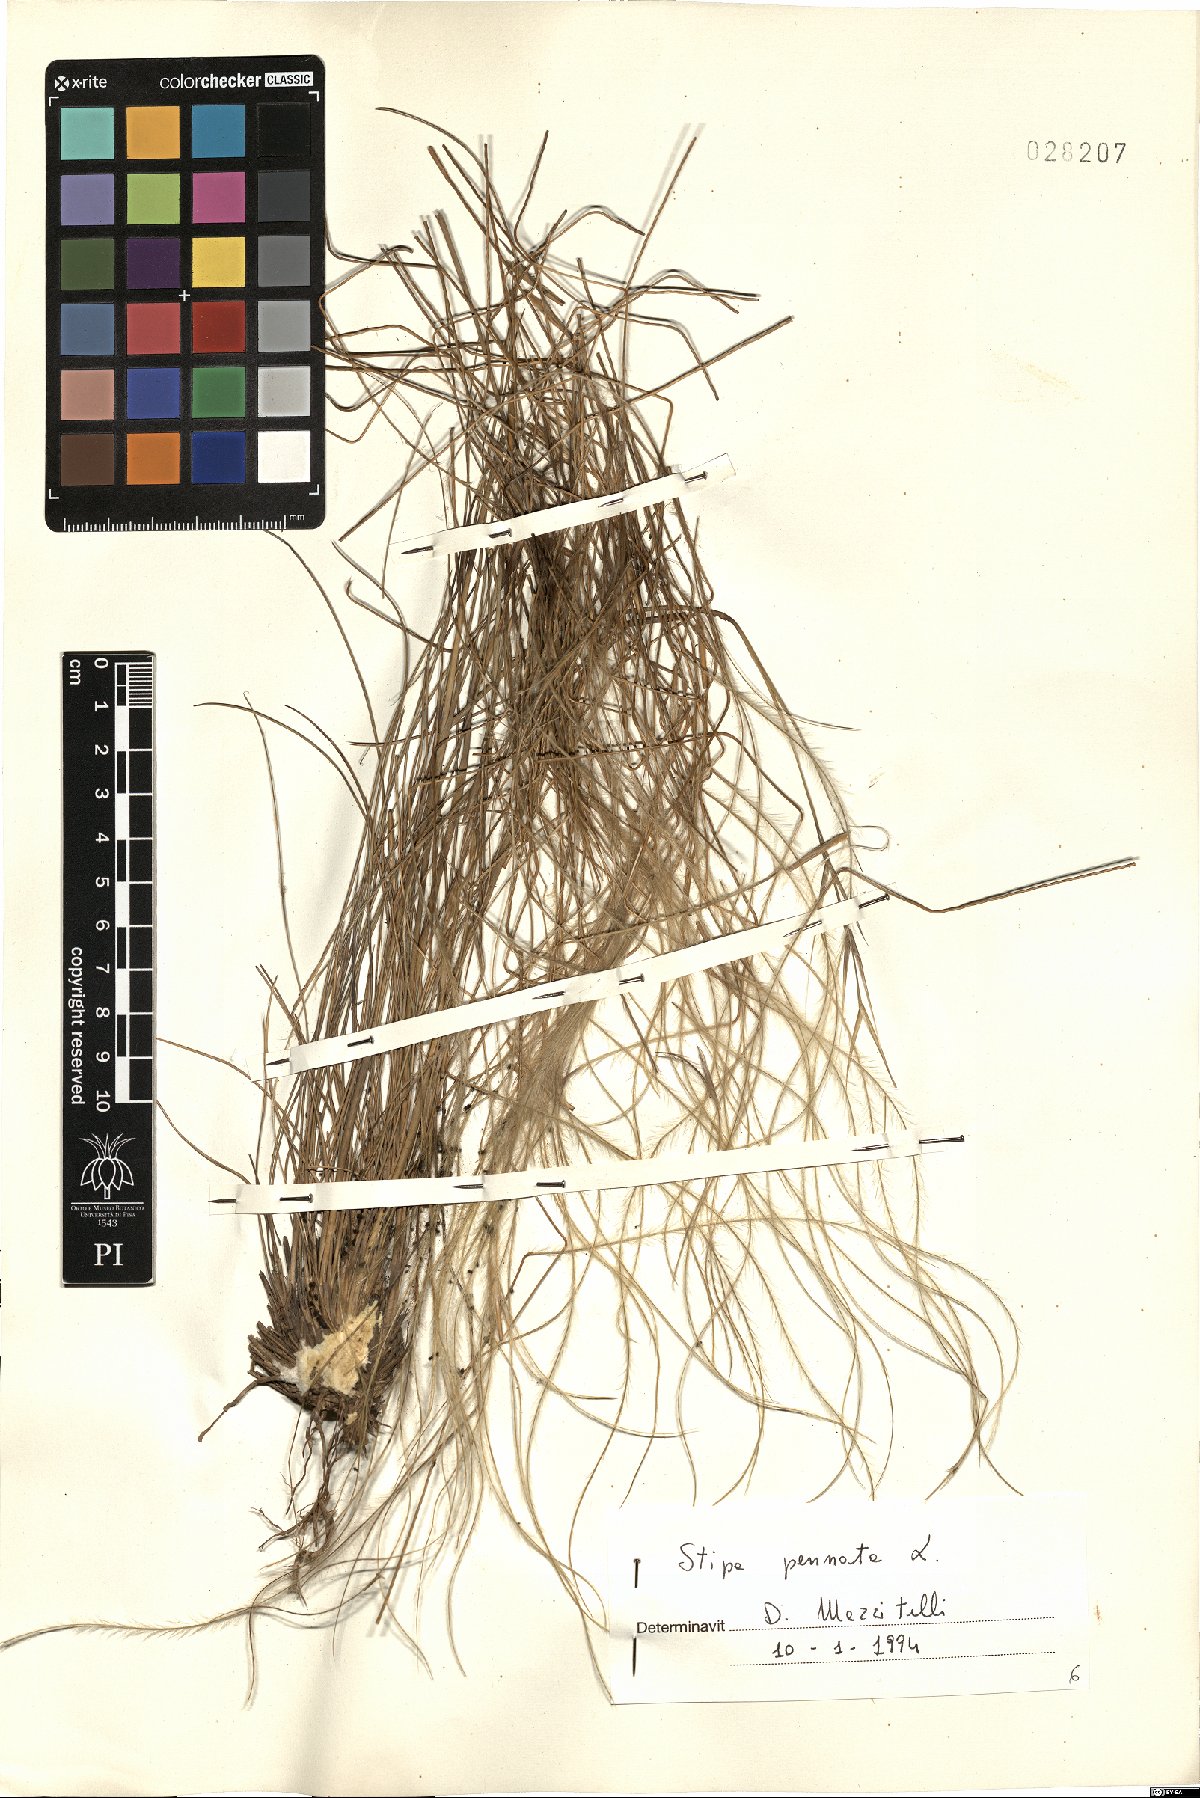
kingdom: Plantae
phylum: Tracheophyta
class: Liliopsida
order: Poales
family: Poaceae
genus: Stipa
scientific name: Stipa pennata
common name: European feather grass
